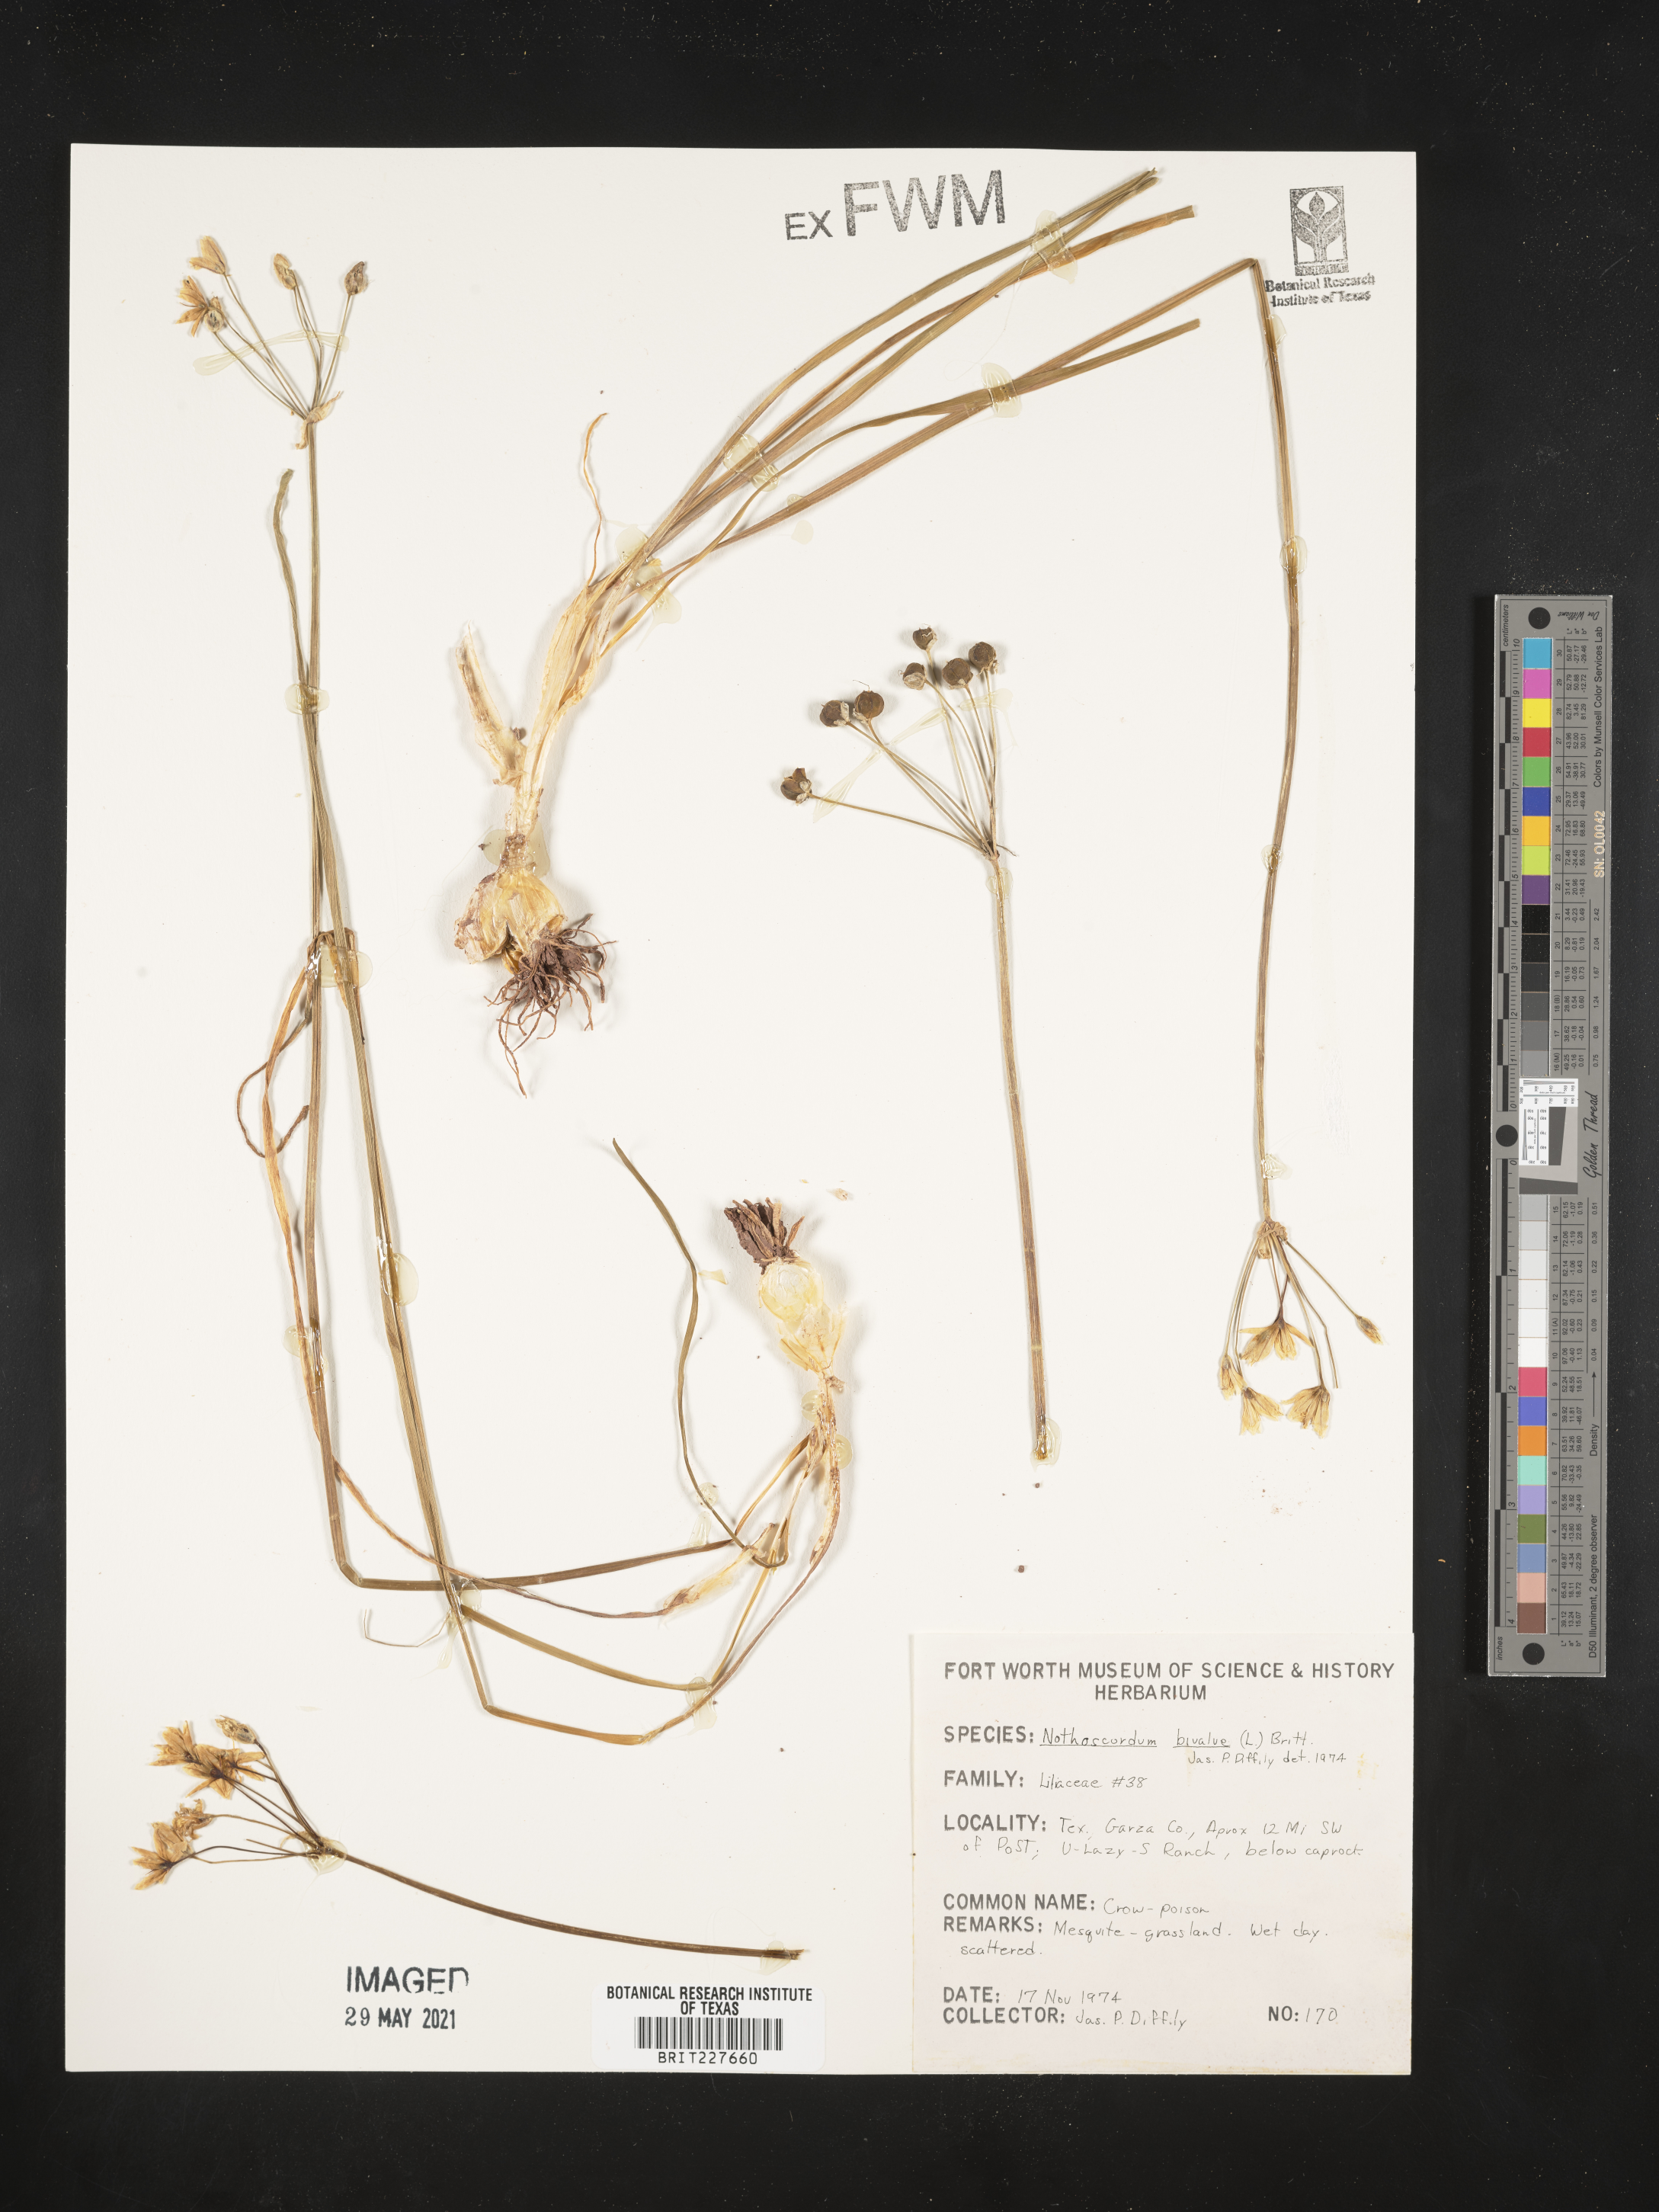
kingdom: Plantae
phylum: Tracheophyta
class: Liliopsida
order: Asparagales
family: Amaryllidaceae
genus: Nothoscordum
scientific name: Nothoscordum bivalve
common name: Crow-poison
